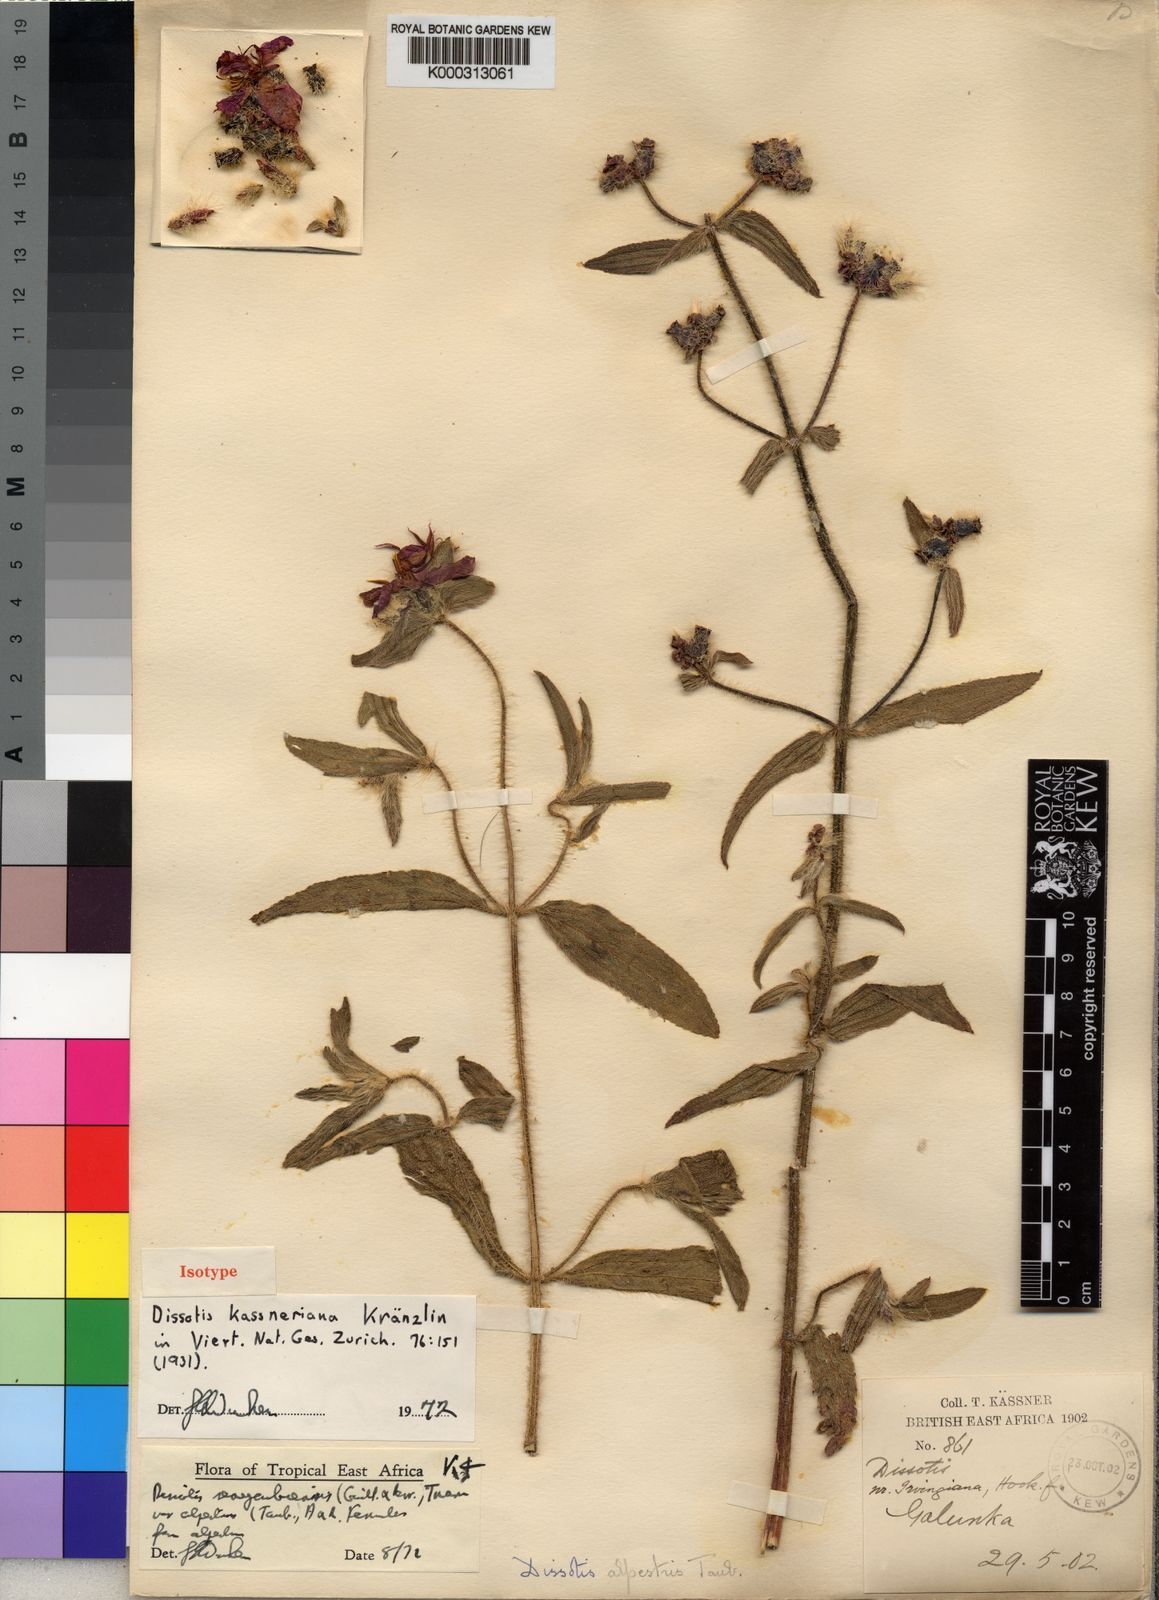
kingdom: Plantae
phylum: Tracheophyta
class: Magnoliopsida
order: Myrtales
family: Melastomataceae
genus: Nerophila
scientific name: Nerophila senegambiensis
